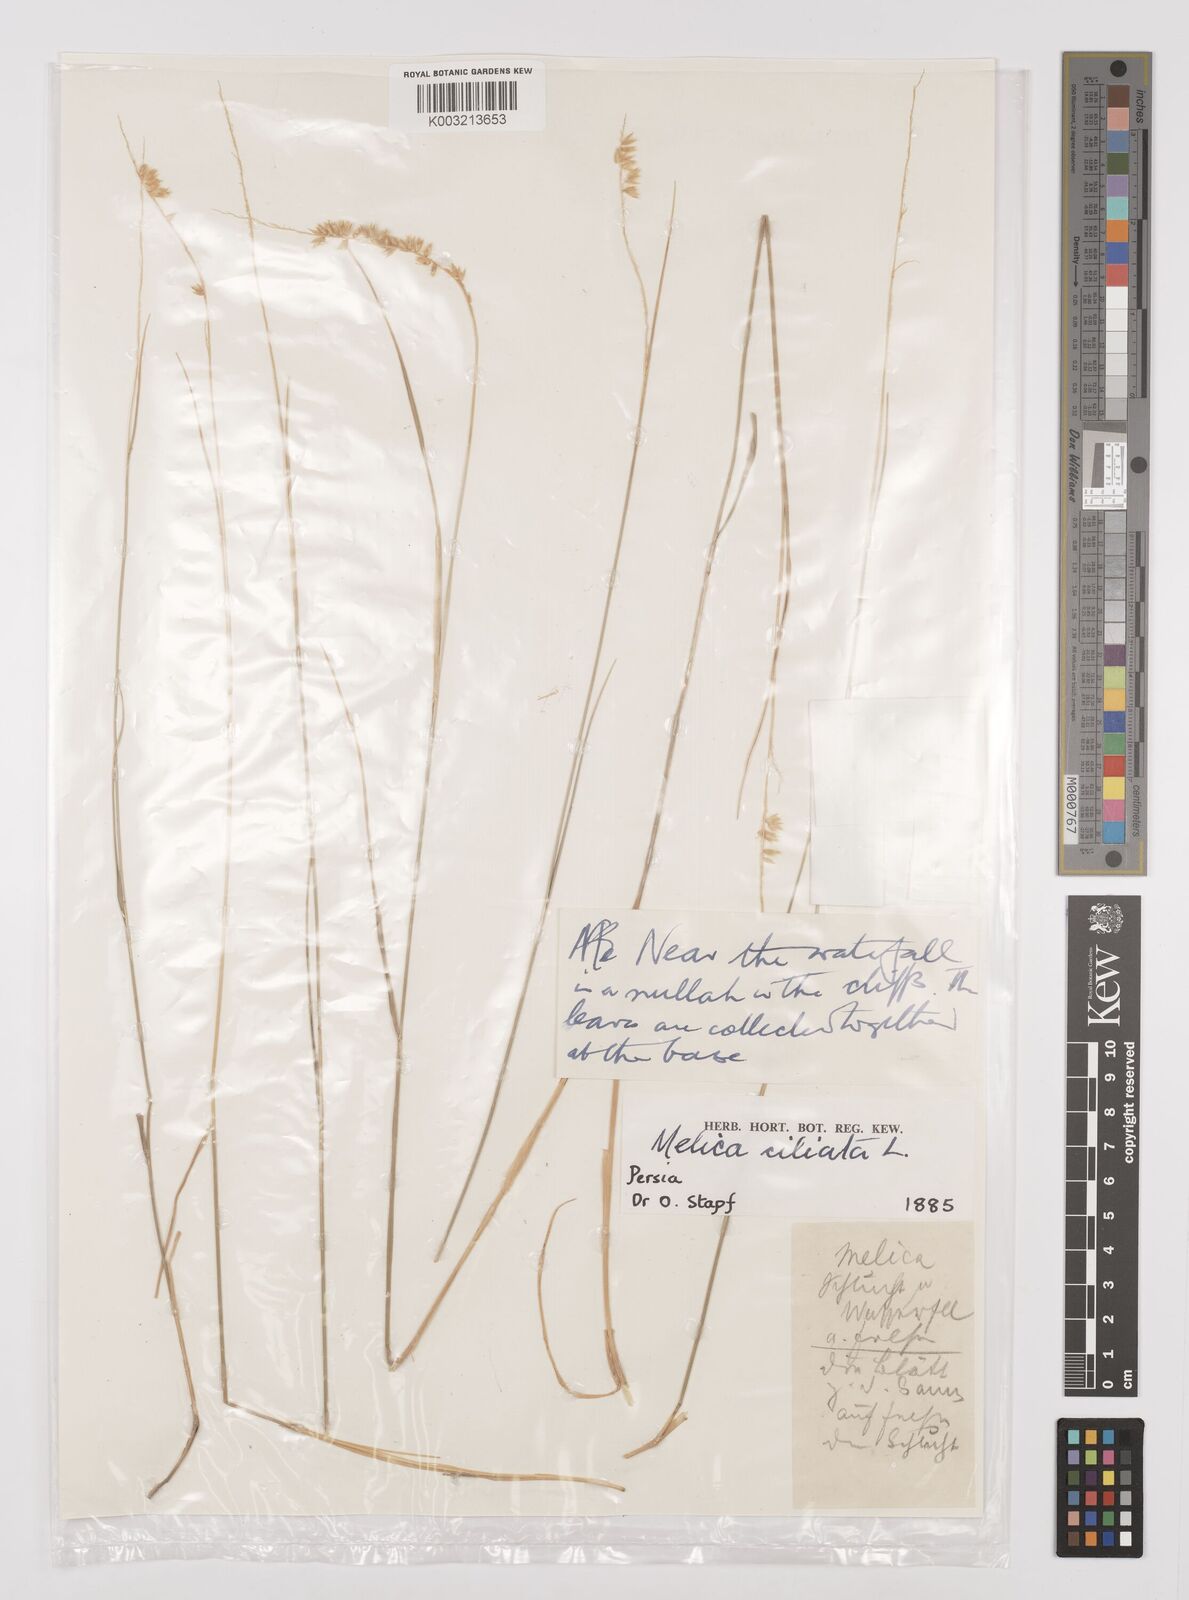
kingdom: Plantae
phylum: Tracheophyta
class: Liliopsida
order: Poales
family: Poaceae
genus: Melica
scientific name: Melica ciliata
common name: Hairy melicgrass
